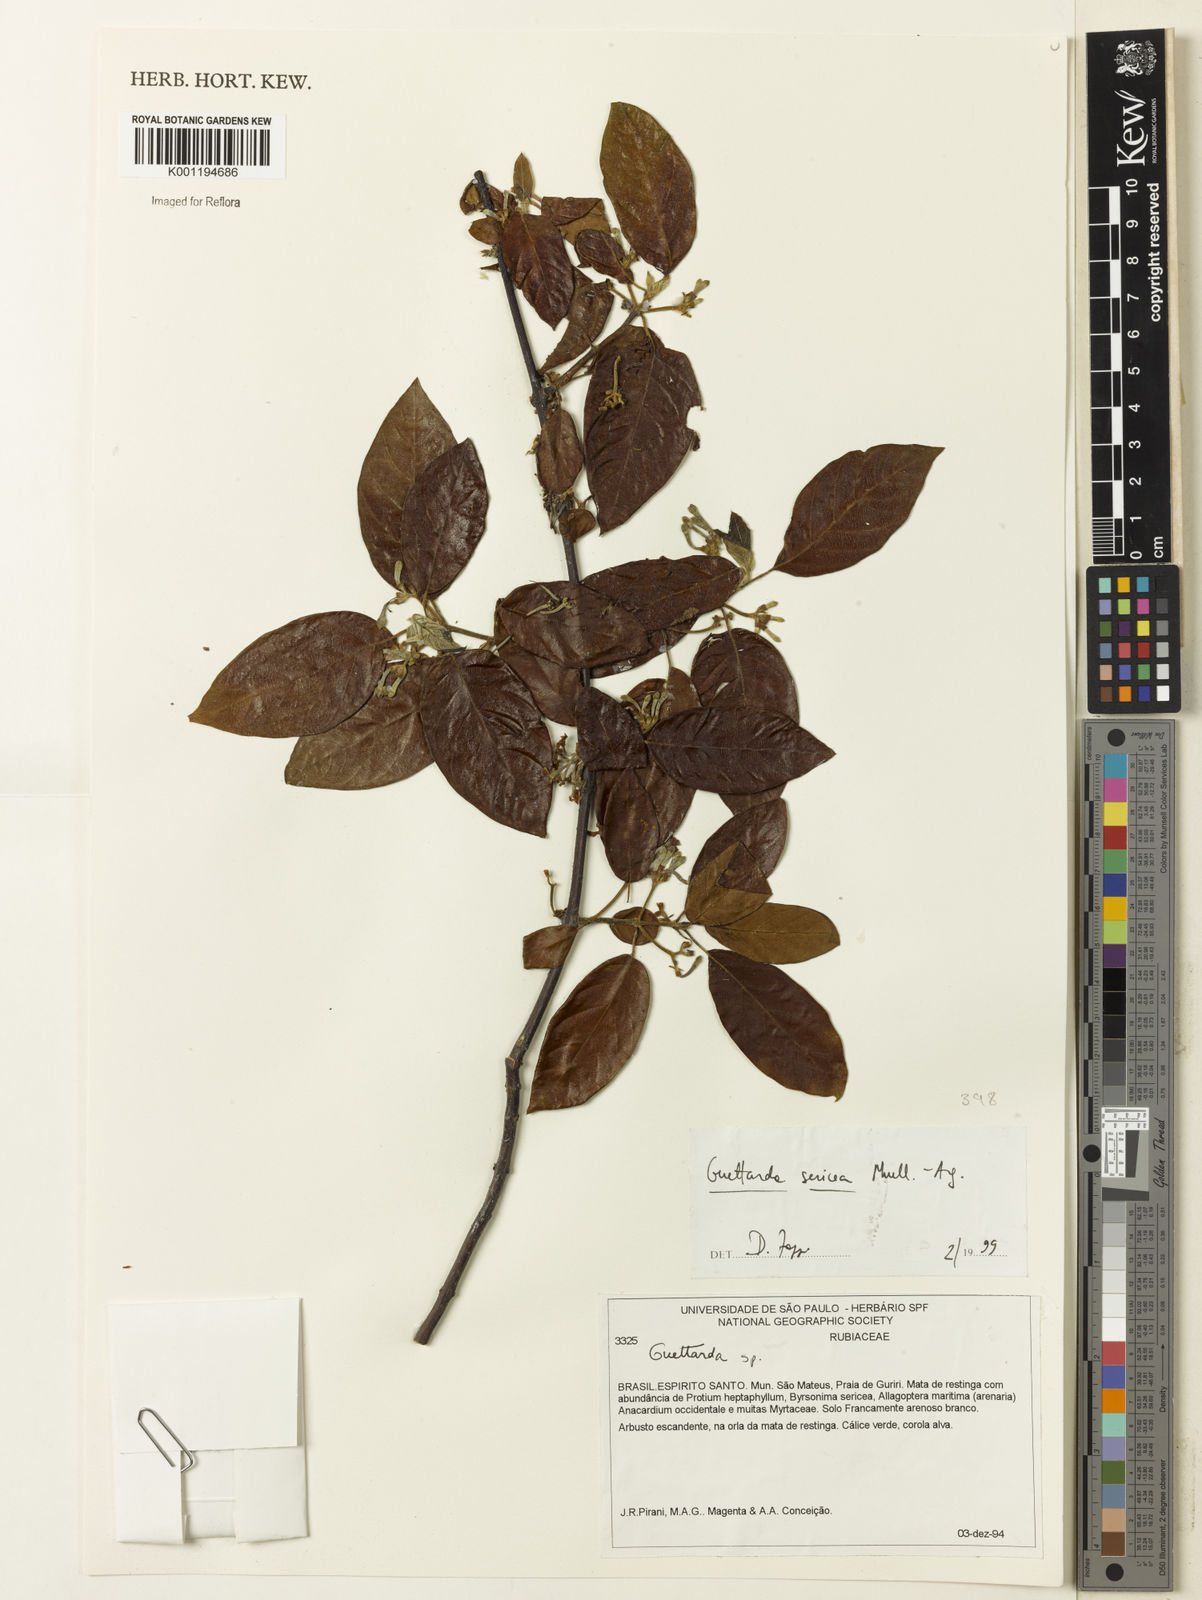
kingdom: Plantae
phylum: Tracheophyta
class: Magnoliopsida
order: Gentianales
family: Rubiaceae
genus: Guettarda
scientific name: Guettarda
